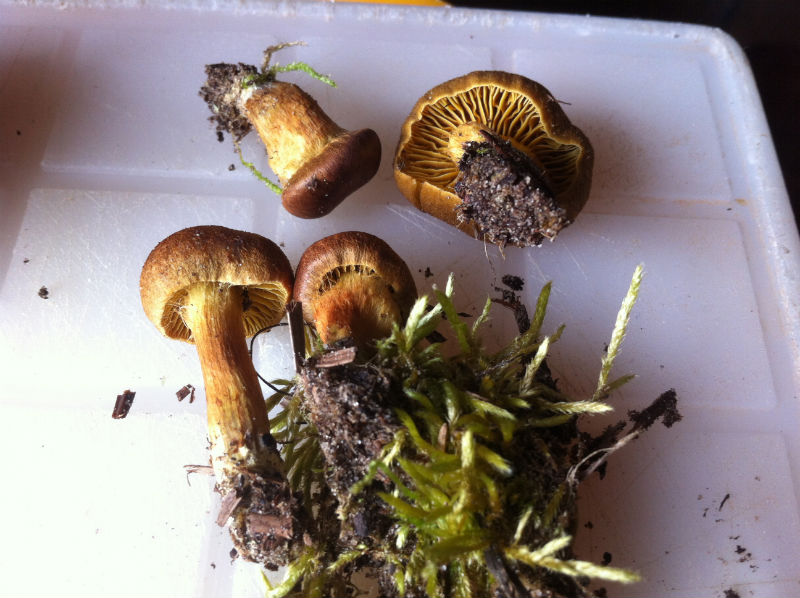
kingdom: Fungi
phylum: Basidiomycota
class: Agaricomycetes
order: Agaricales
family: Cortinariaceae
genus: Cortinarius
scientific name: Cortinarius cinnamomeus
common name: kanel-slørhat
